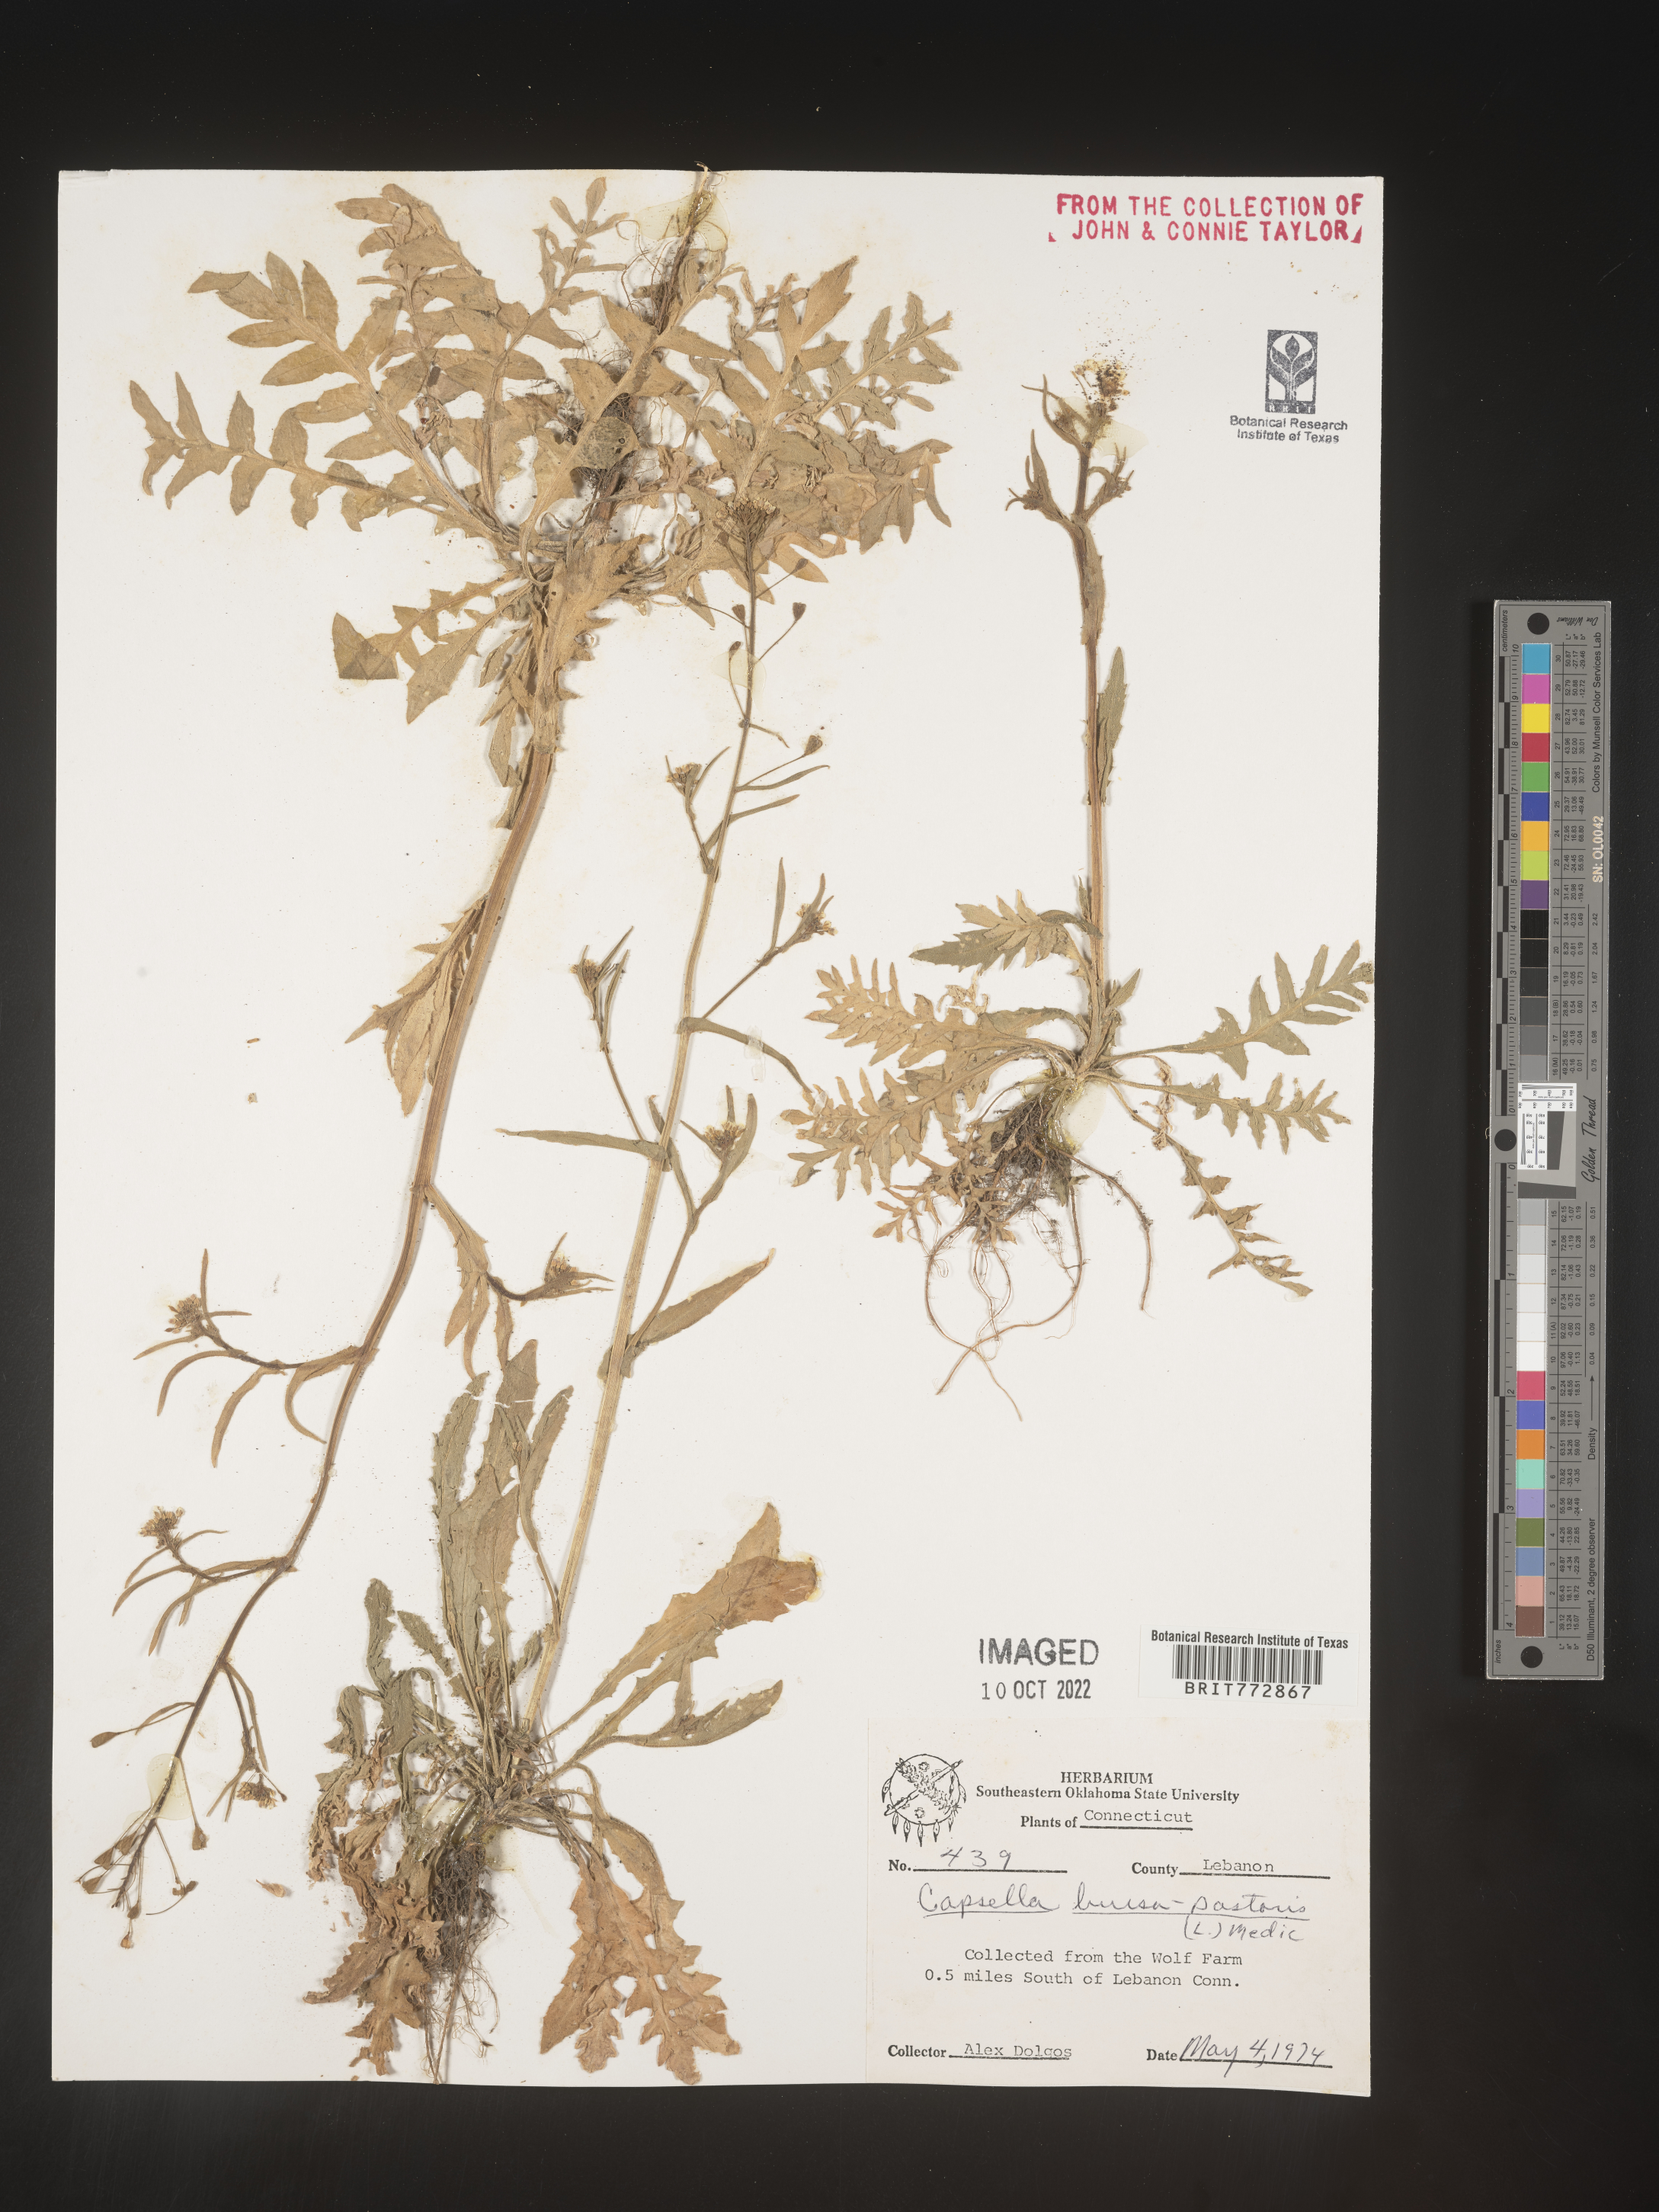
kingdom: Plantae
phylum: Tracheophyta
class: Magnoliopsida
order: Brassicales
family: Brassicaceae
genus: Capsella
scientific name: Capsella bursa-pastoris
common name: Shepherd's purse
